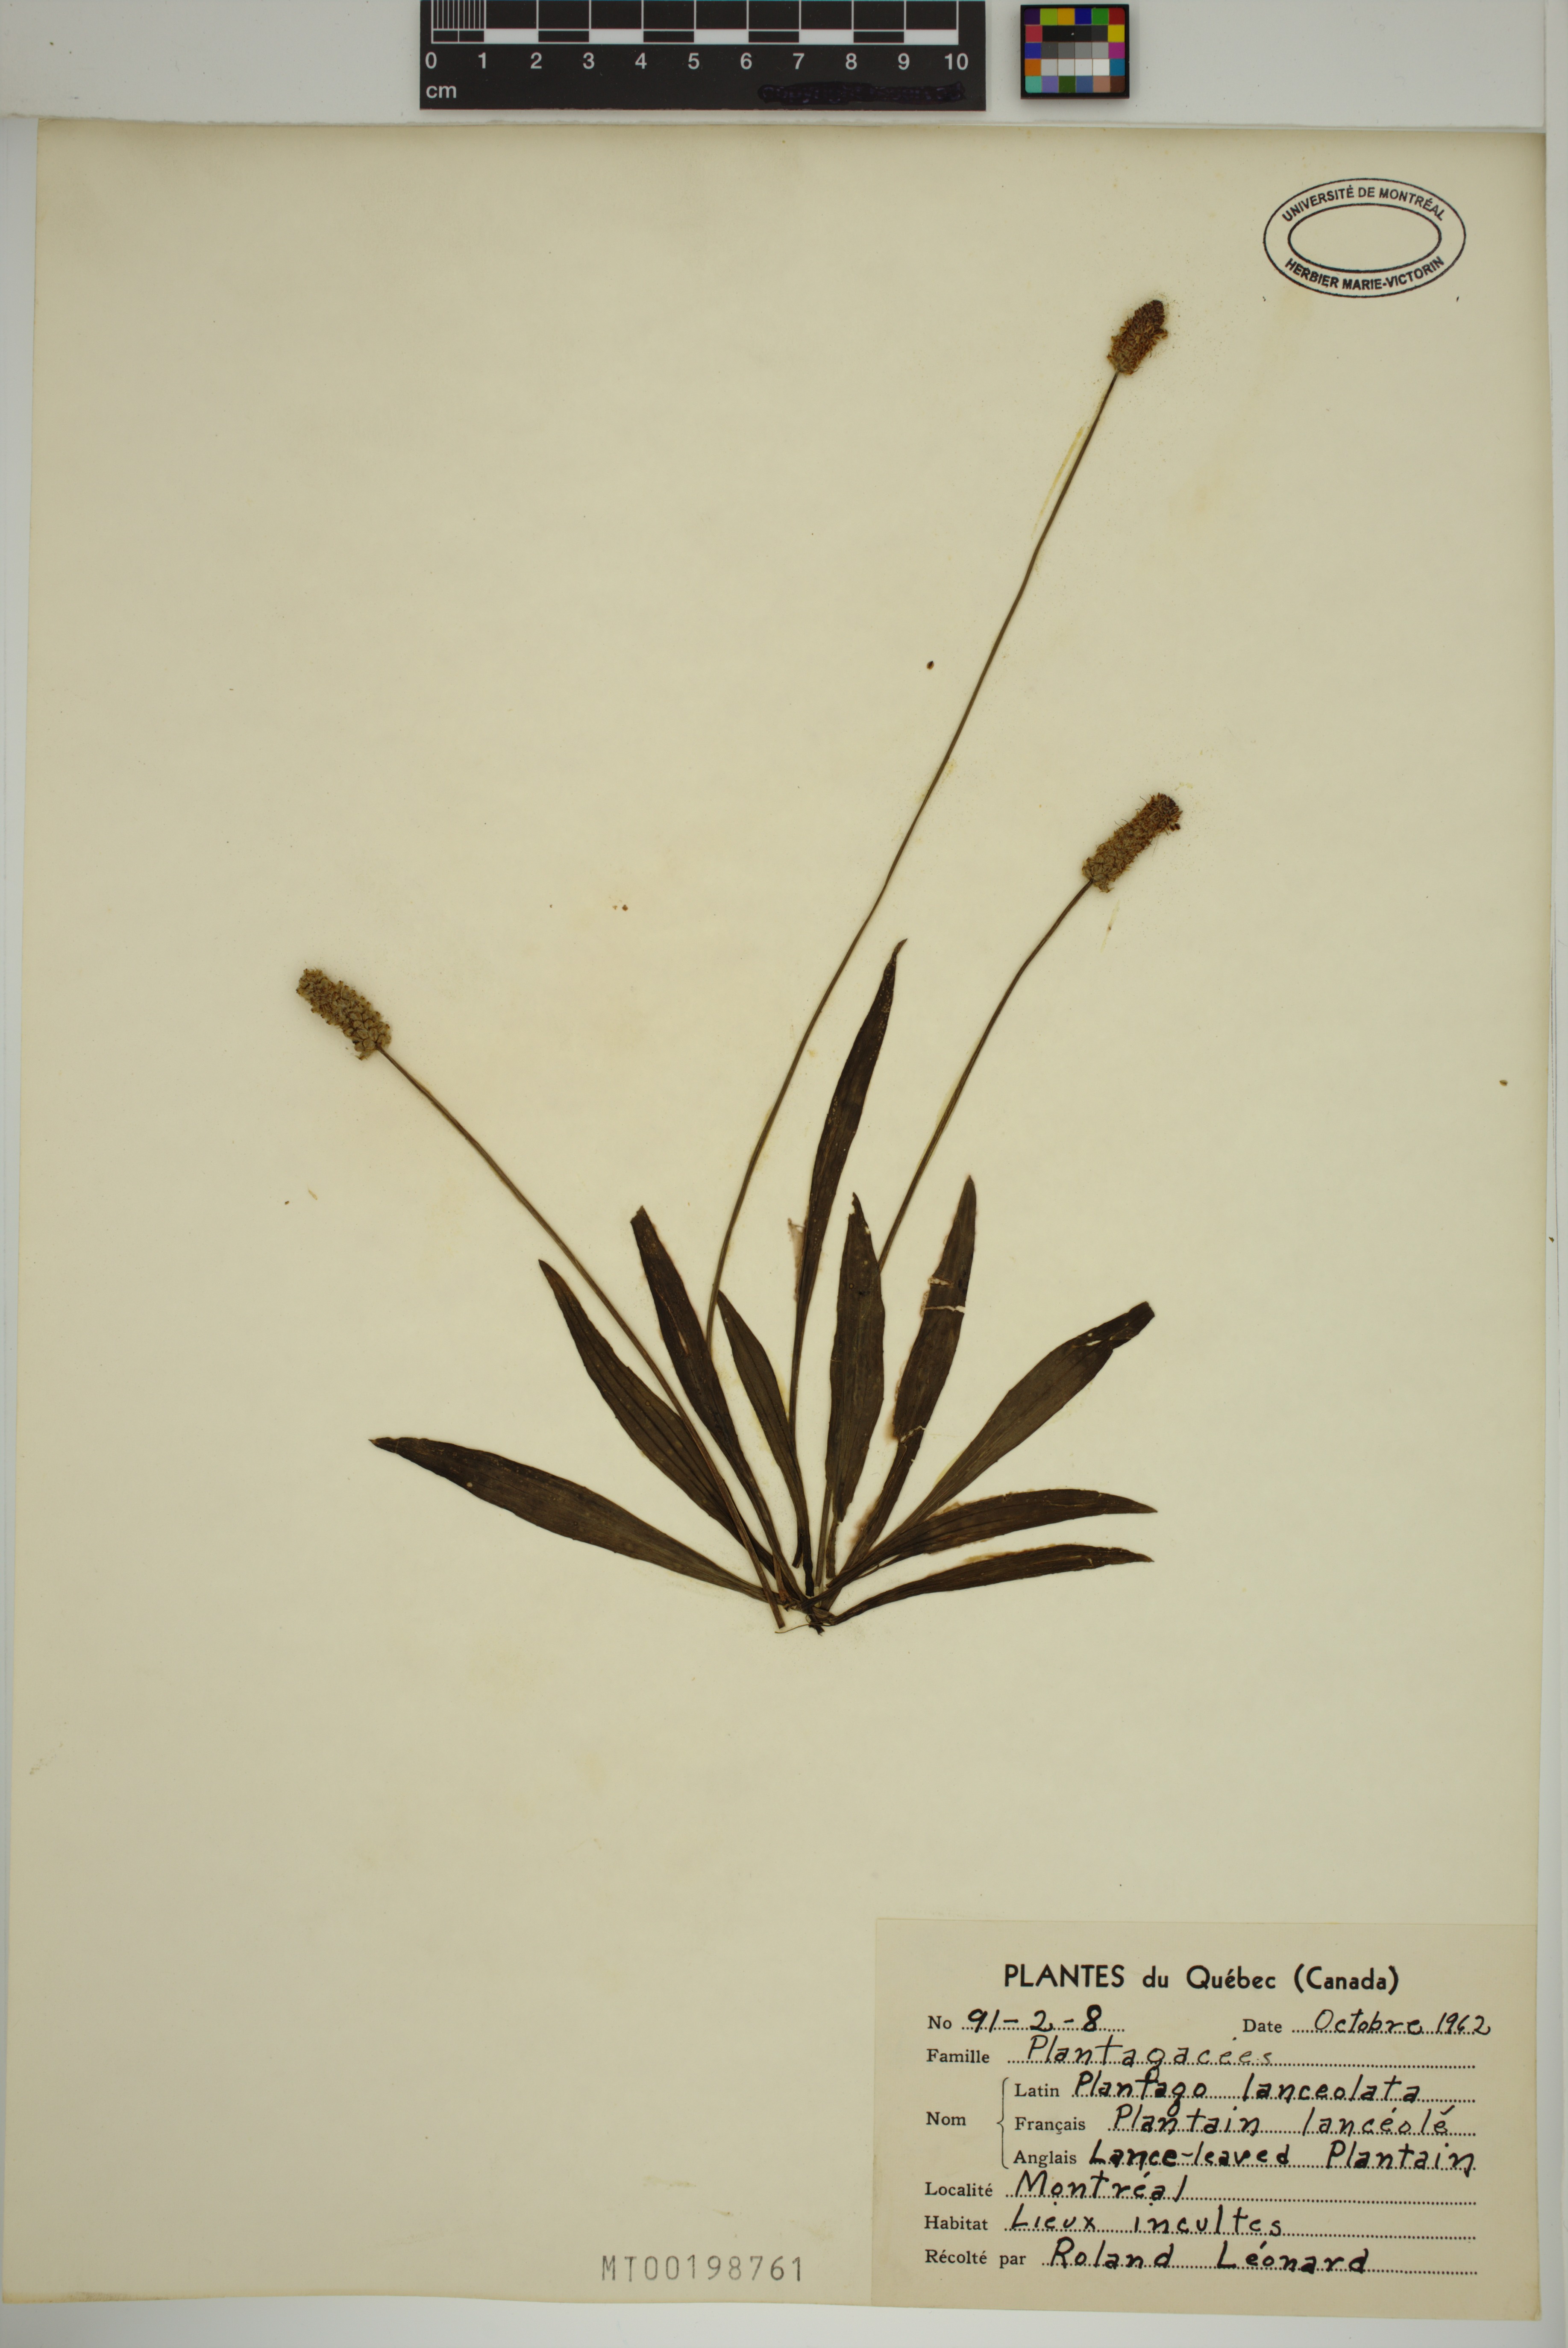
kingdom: Plantae
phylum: Tracheophyta
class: Magnoliopsida
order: Lamiales
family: Plantaginaceae
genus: Plantago
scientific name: Plantago lanceolata
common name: Ribwort plantain
